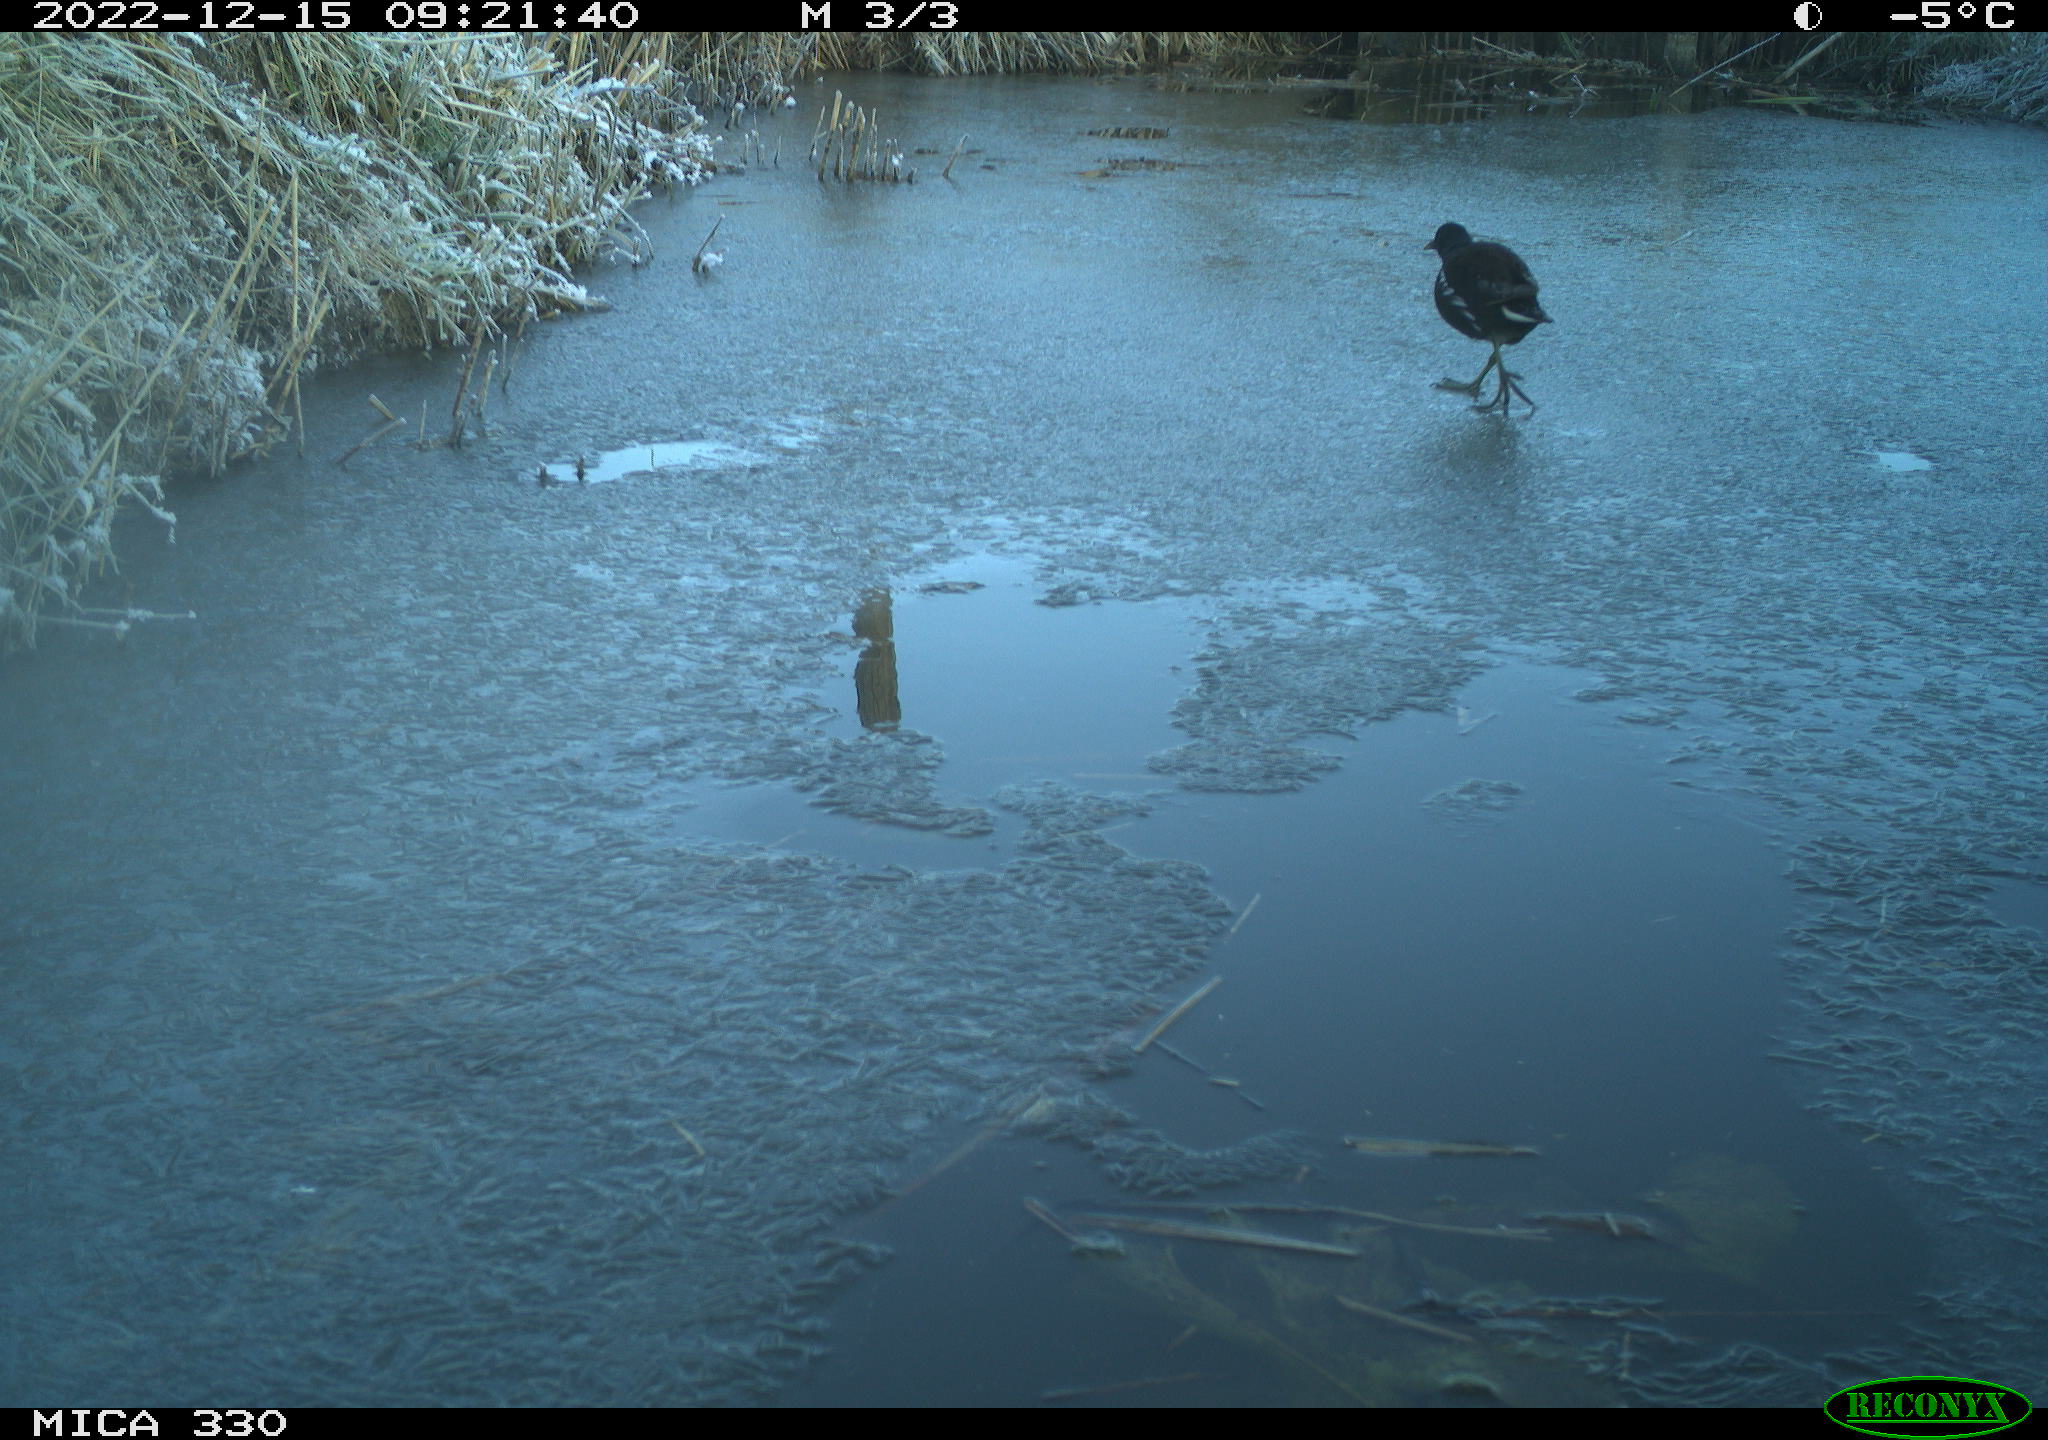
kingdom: Animalia
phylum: Chordata
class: Aves
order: Gruiformes
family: Rallidae
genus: Gallinula
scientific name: Gallinula chloropus
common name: Common moorhen
